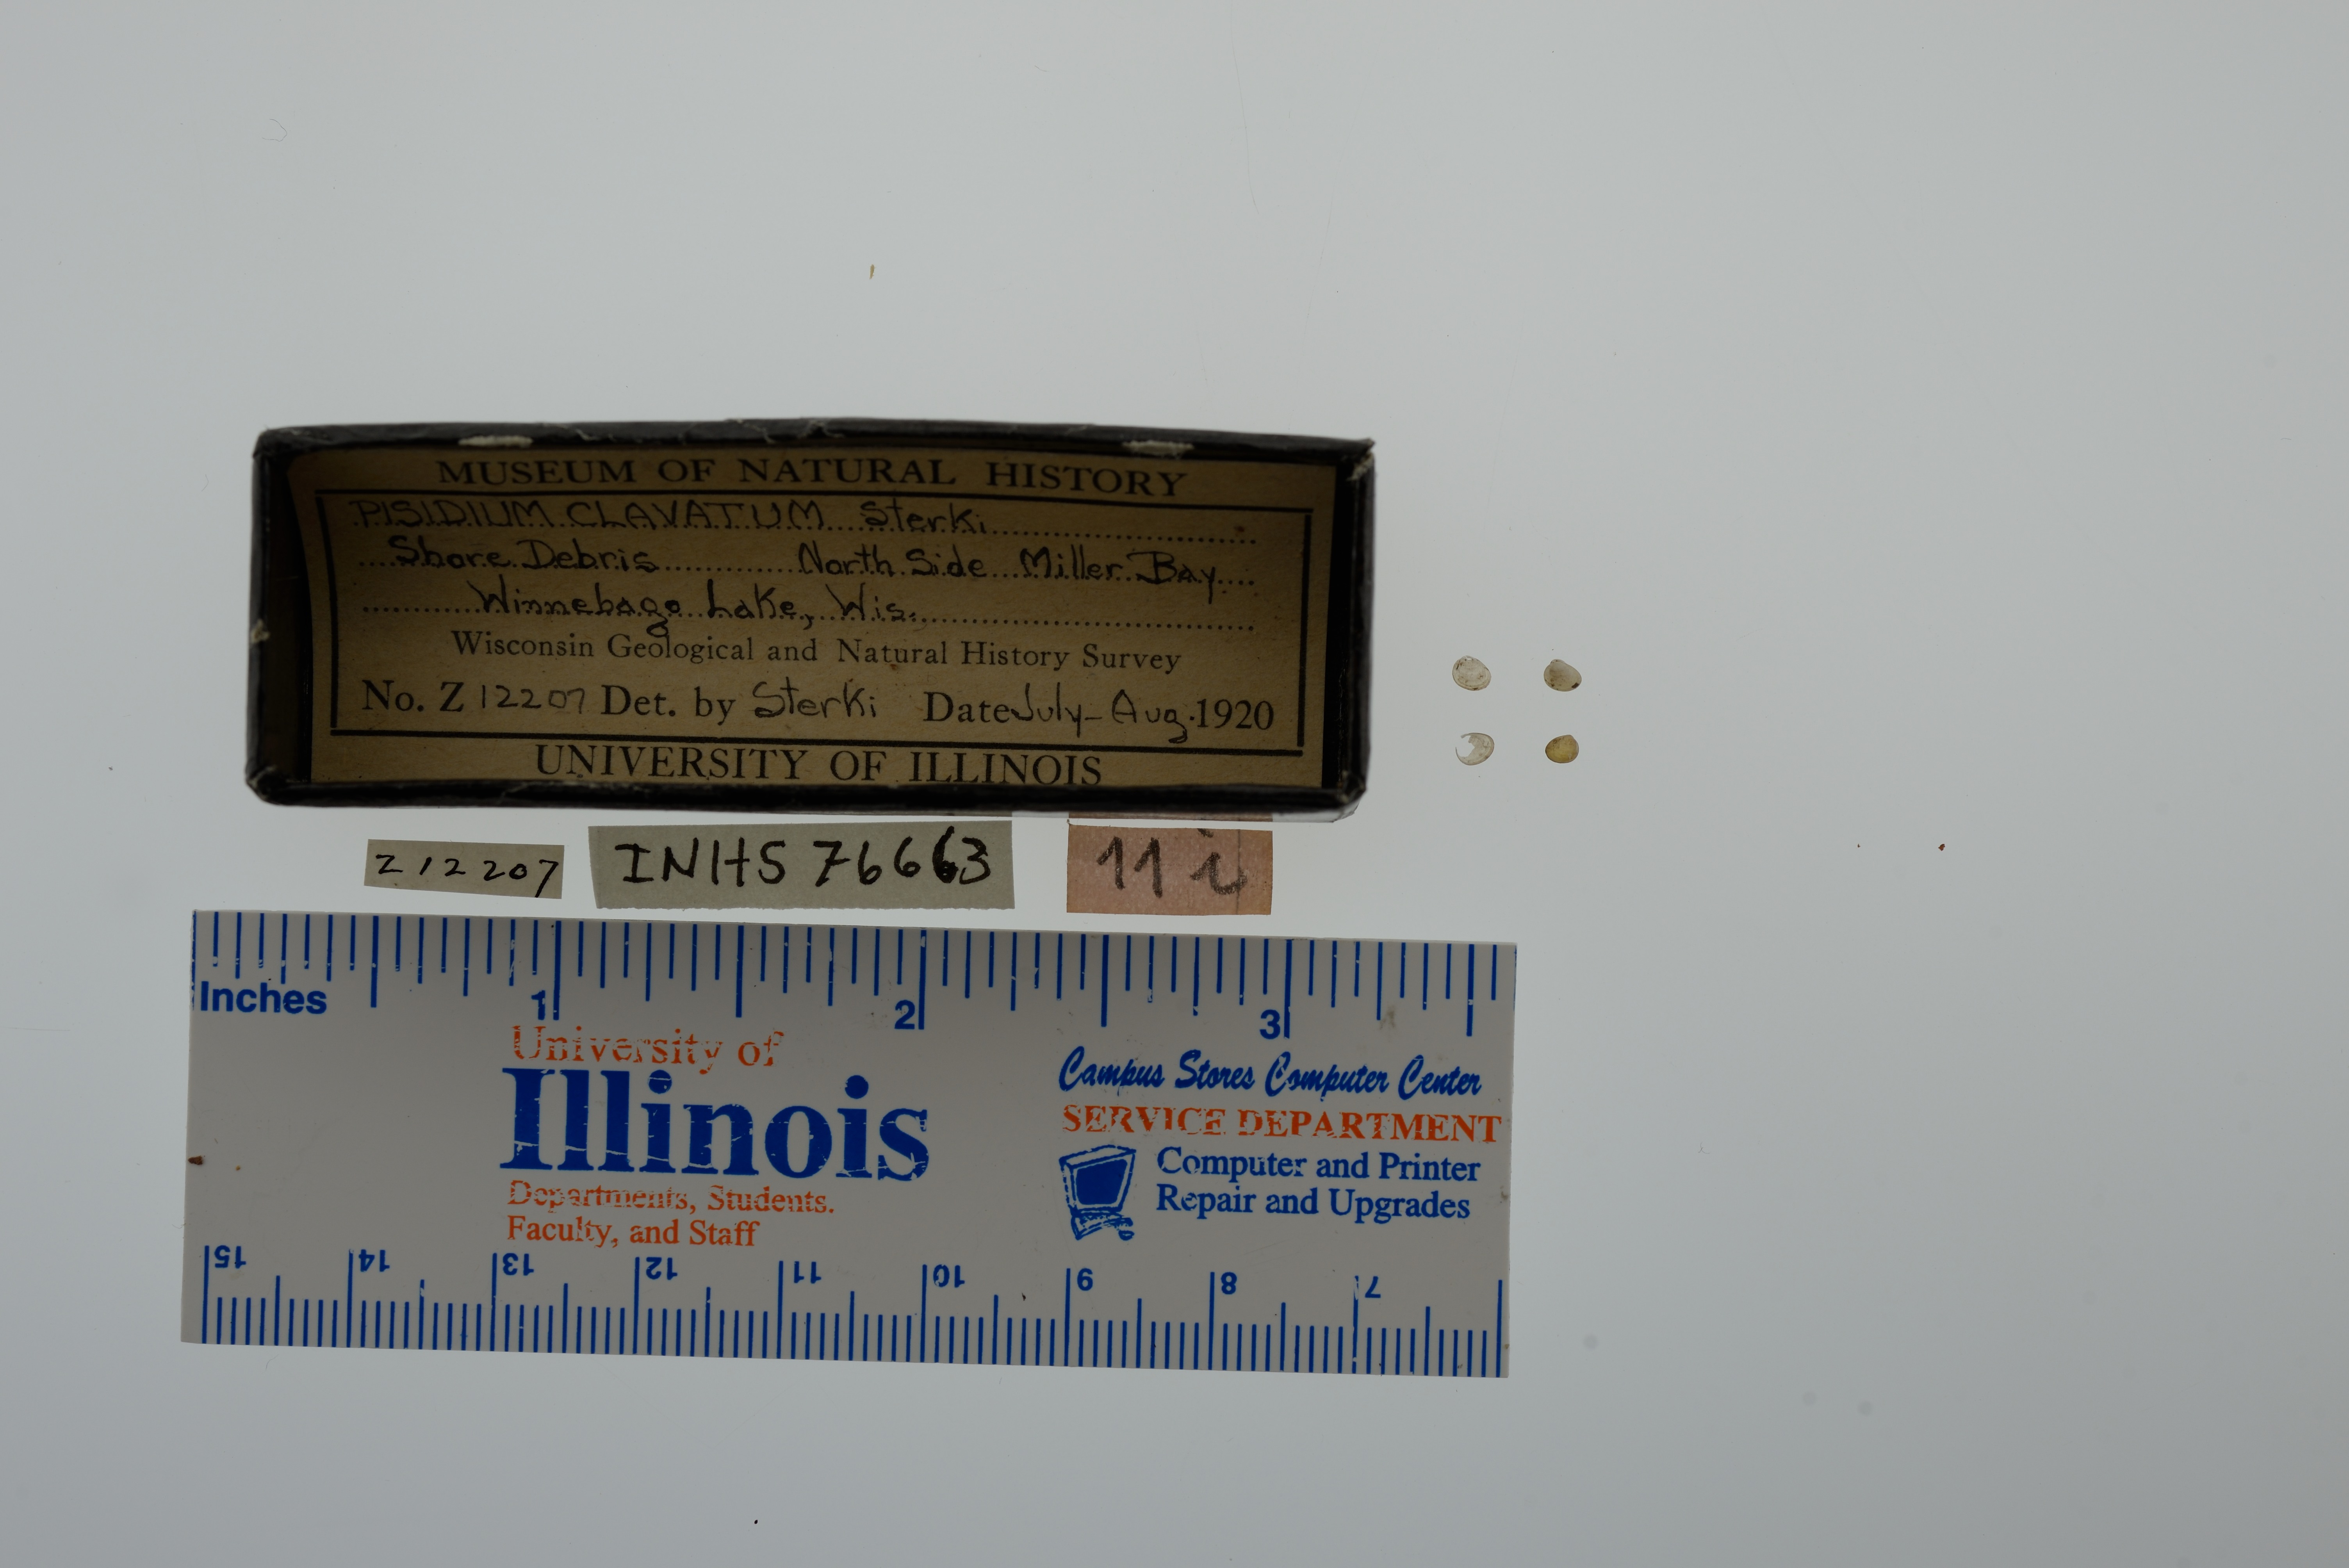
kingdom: Animalia
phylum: Mollusca
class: Bivalvia
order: Sphaeriida
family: Sphaeriidae
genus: Euglesa
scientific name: Euglesa ferruginea
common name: Rusty peaclam
